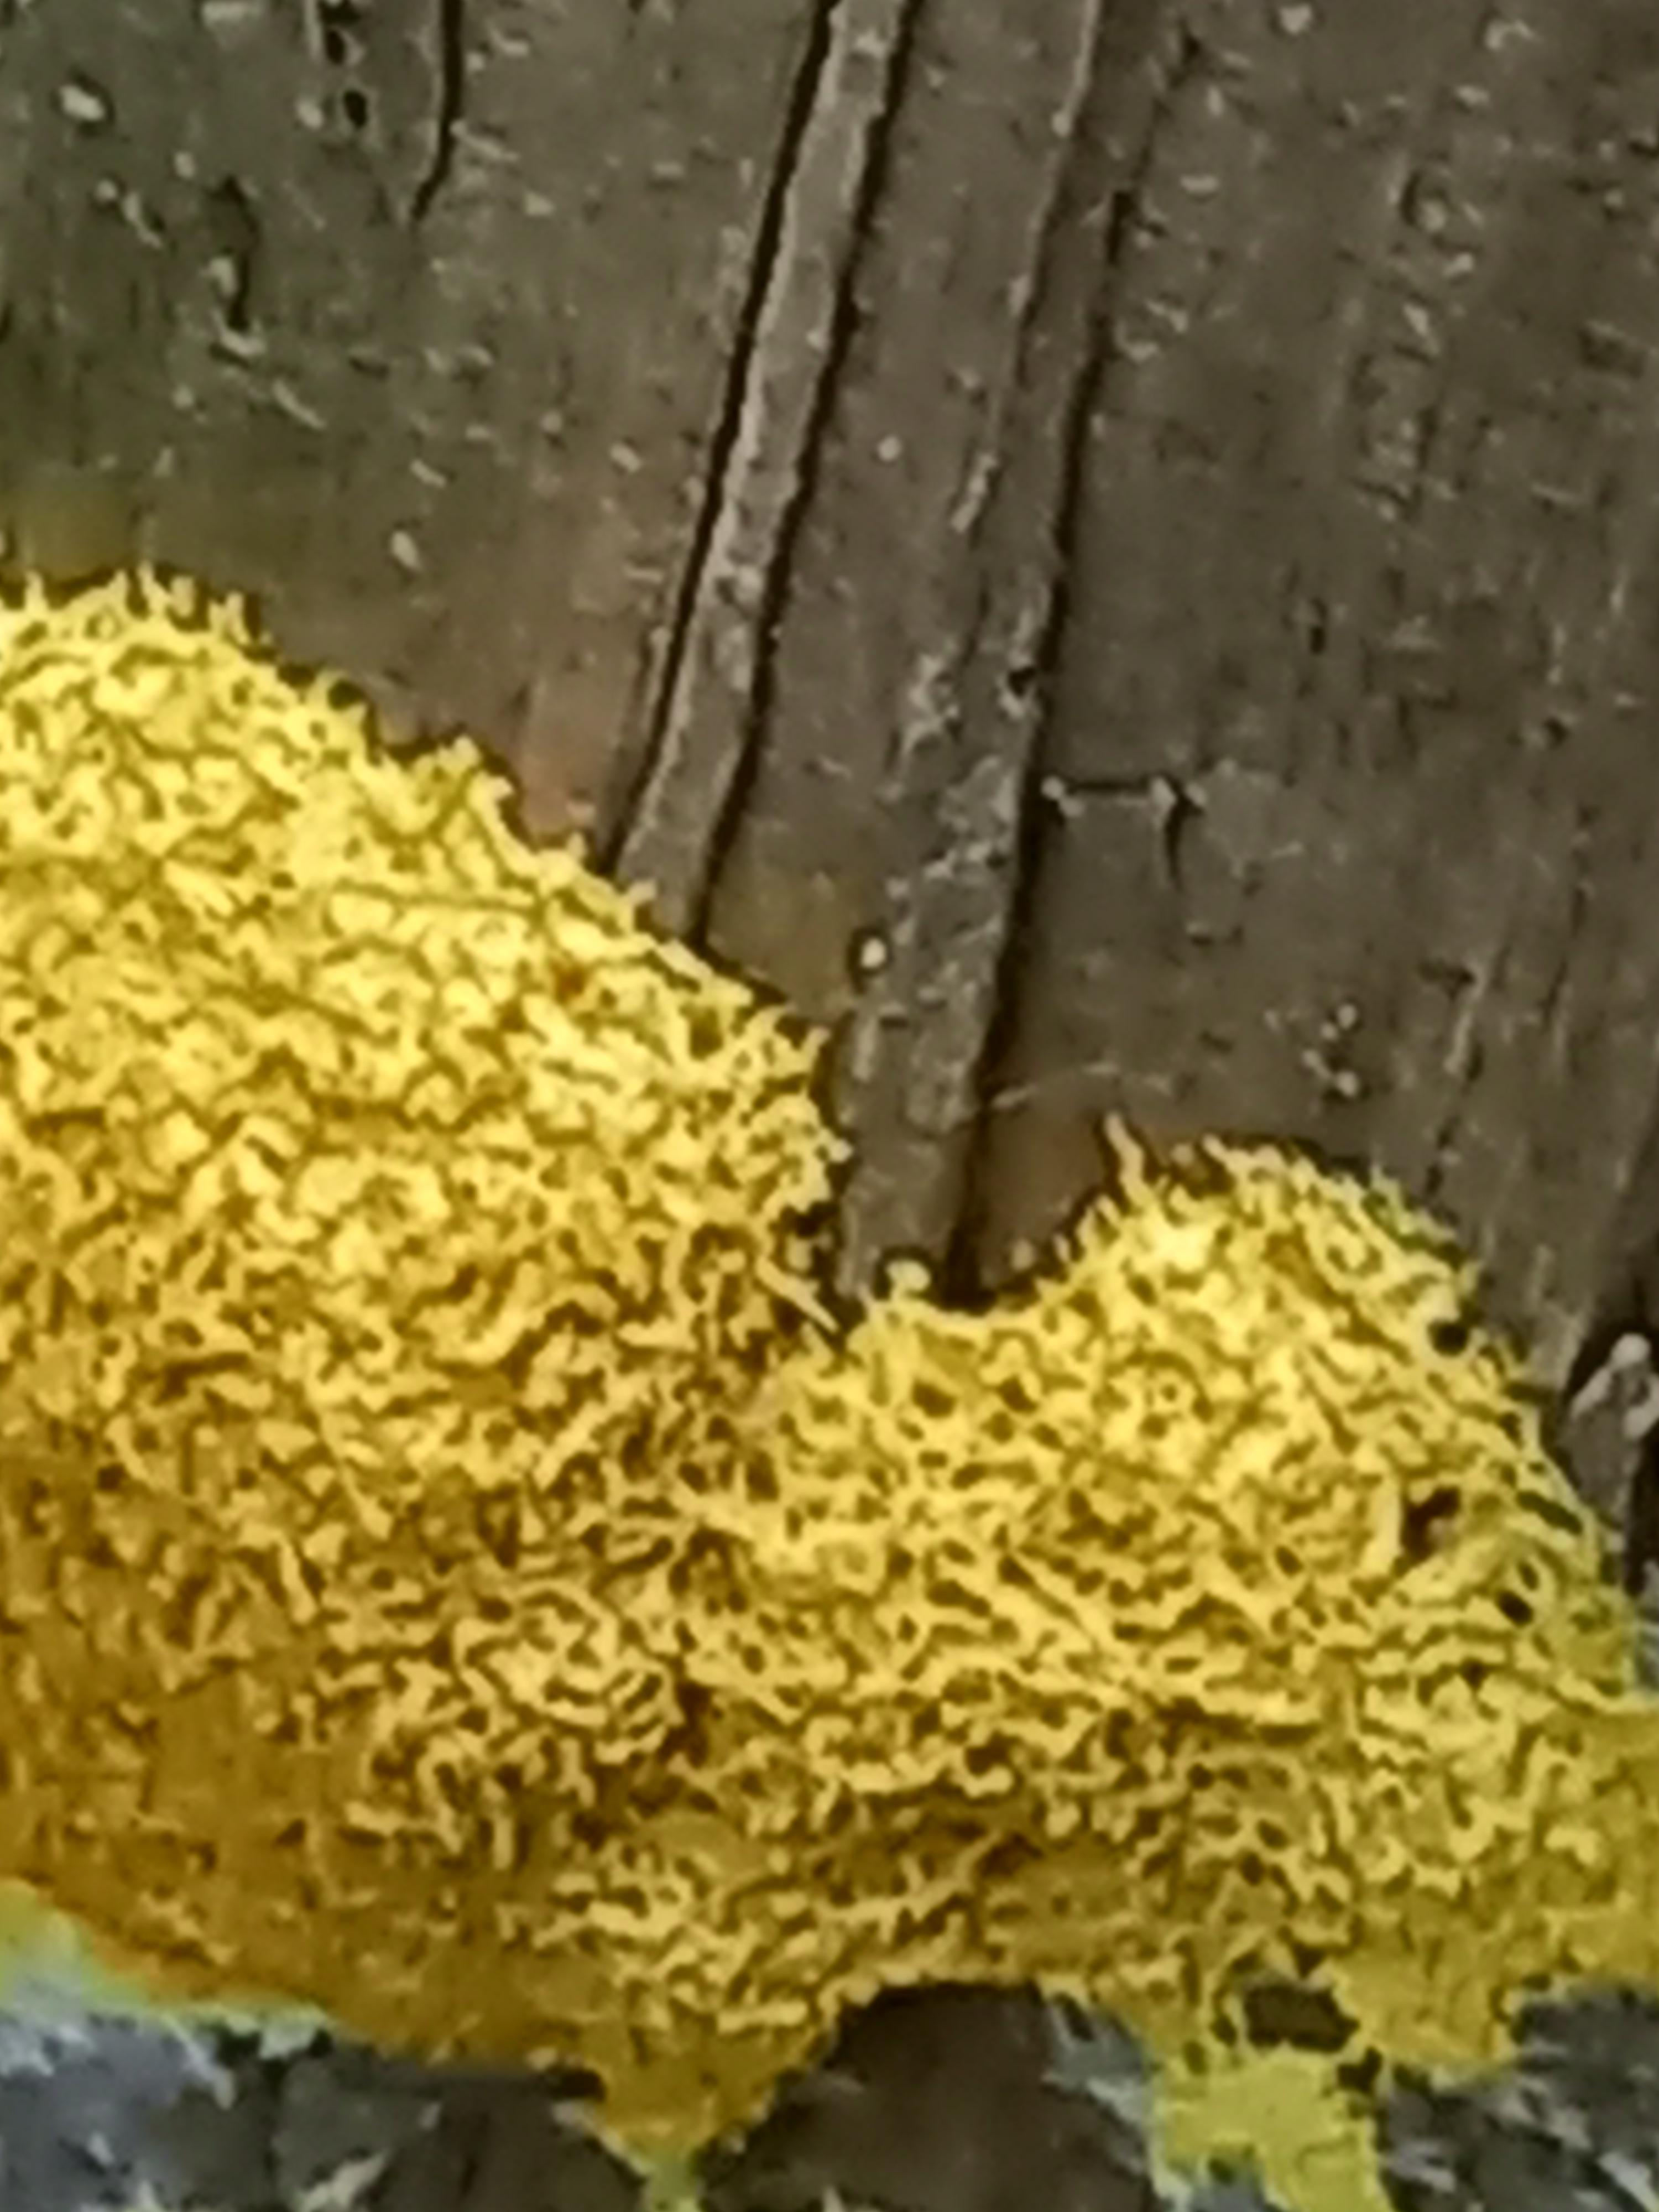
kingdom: Protozoa
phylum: Mycetozoa
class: Myxomycetes
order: Physarales
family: Physaraceae
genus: Fuligo
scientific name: Fuligo septica
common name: gul troldsmør
